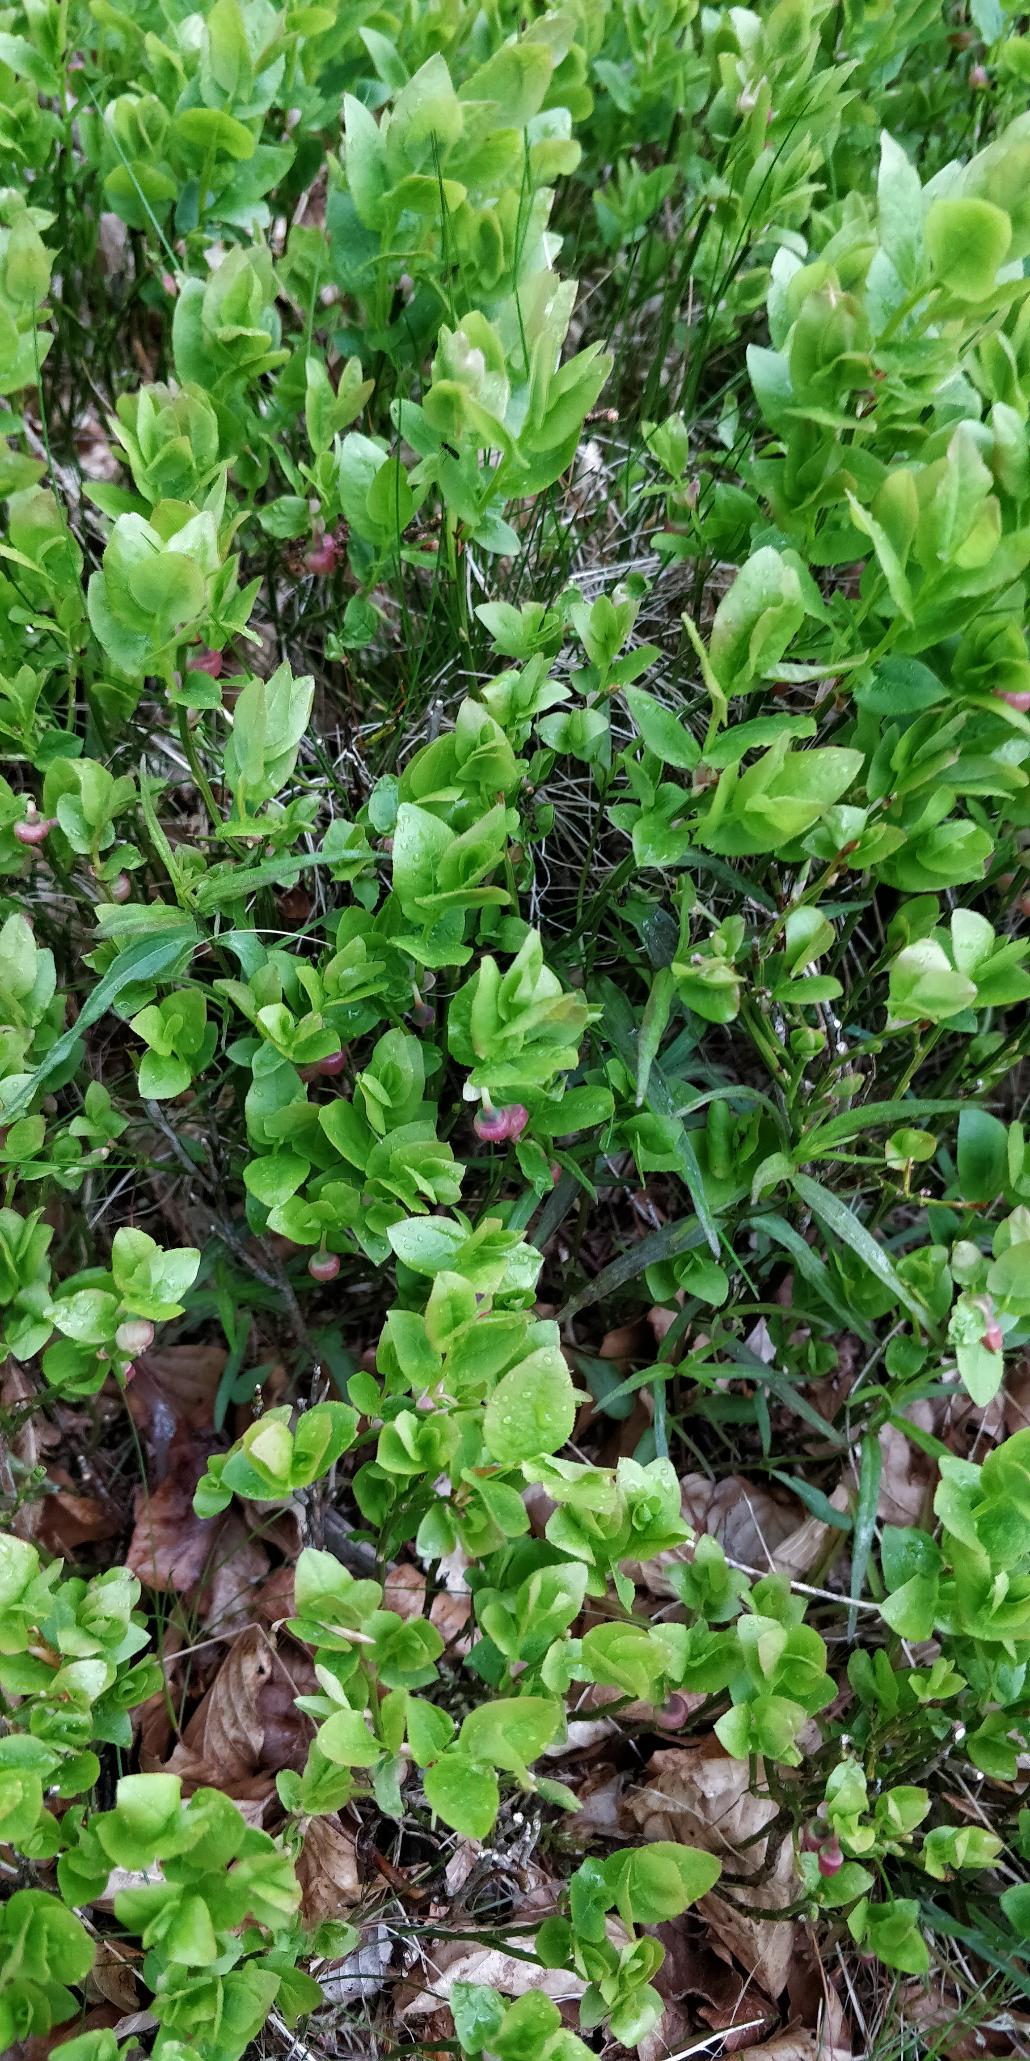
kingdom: Plantae
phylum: Tracheophyta
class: Magnoliopsida
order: Ericales
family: Ericaceae
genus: Vaccinium
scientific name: Vaccinium myrtillus
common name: Blåbær
